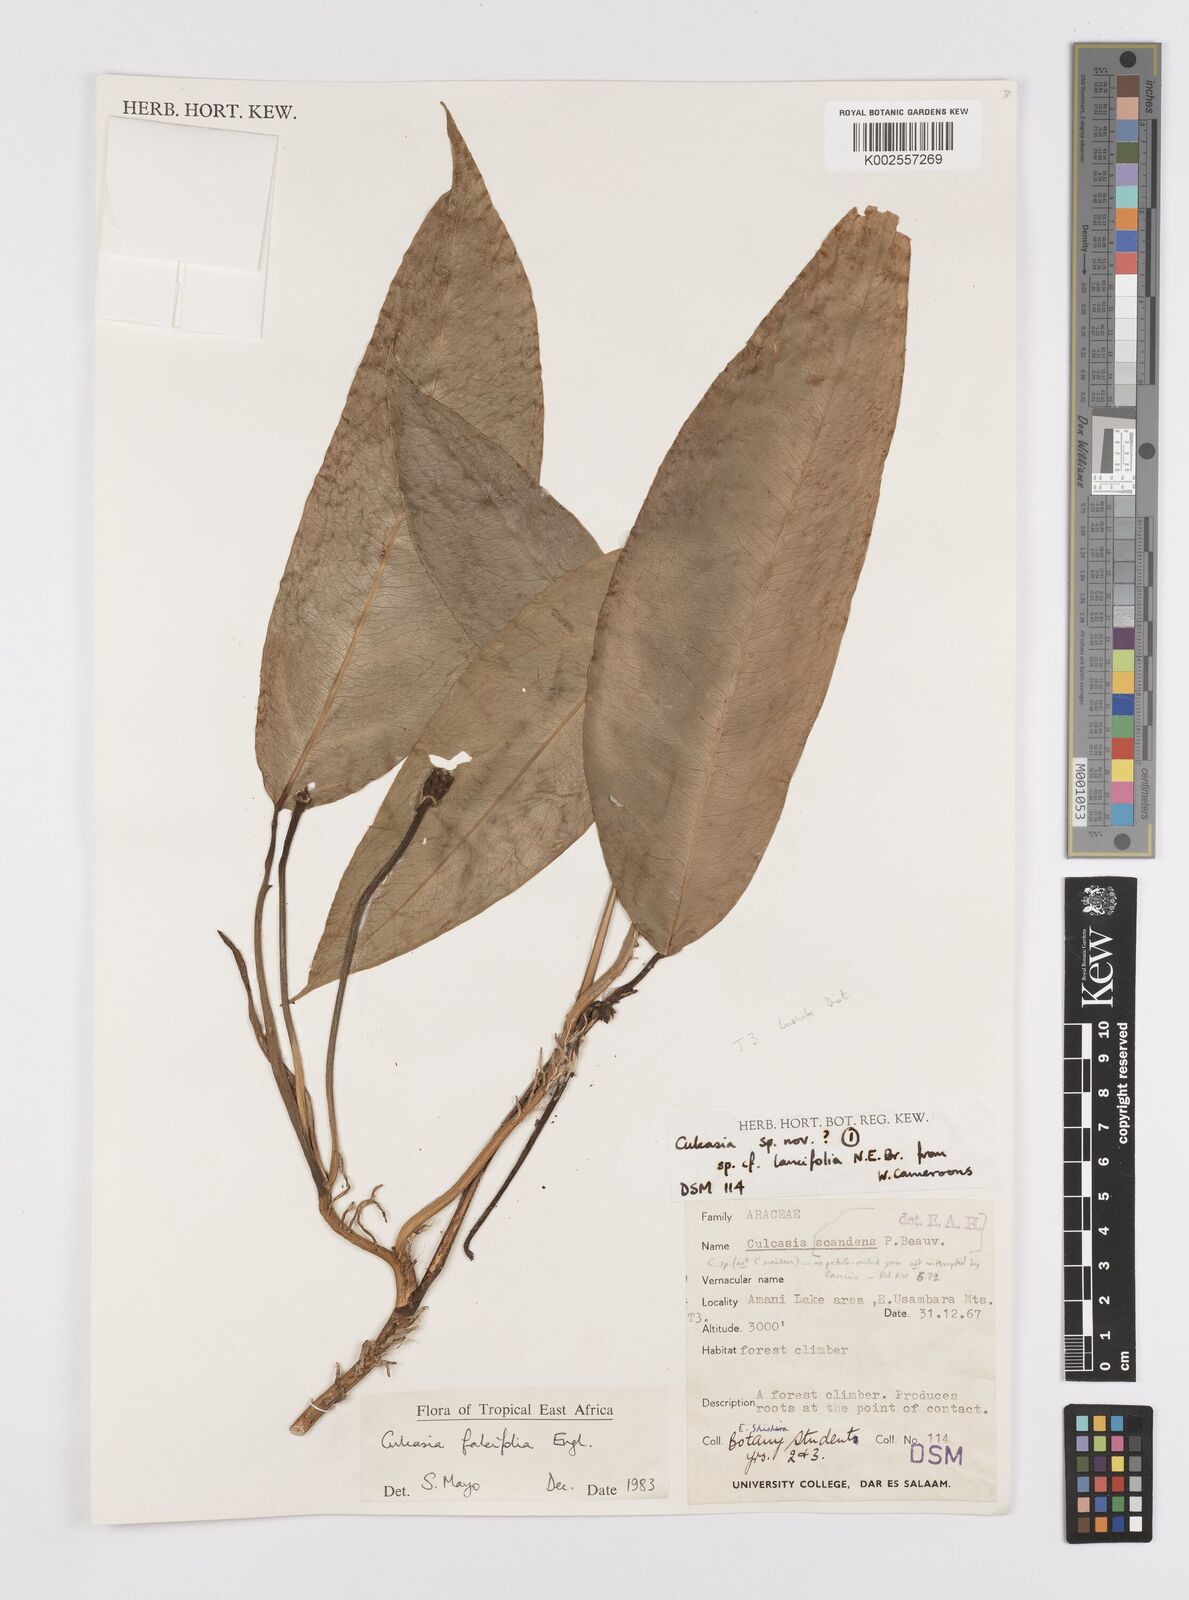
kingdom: Plantae
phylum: Tracheophyta
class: Liliopsida
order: Alismatales
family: Araceae
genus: Culcasia
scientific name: Culcasia falcifolia
